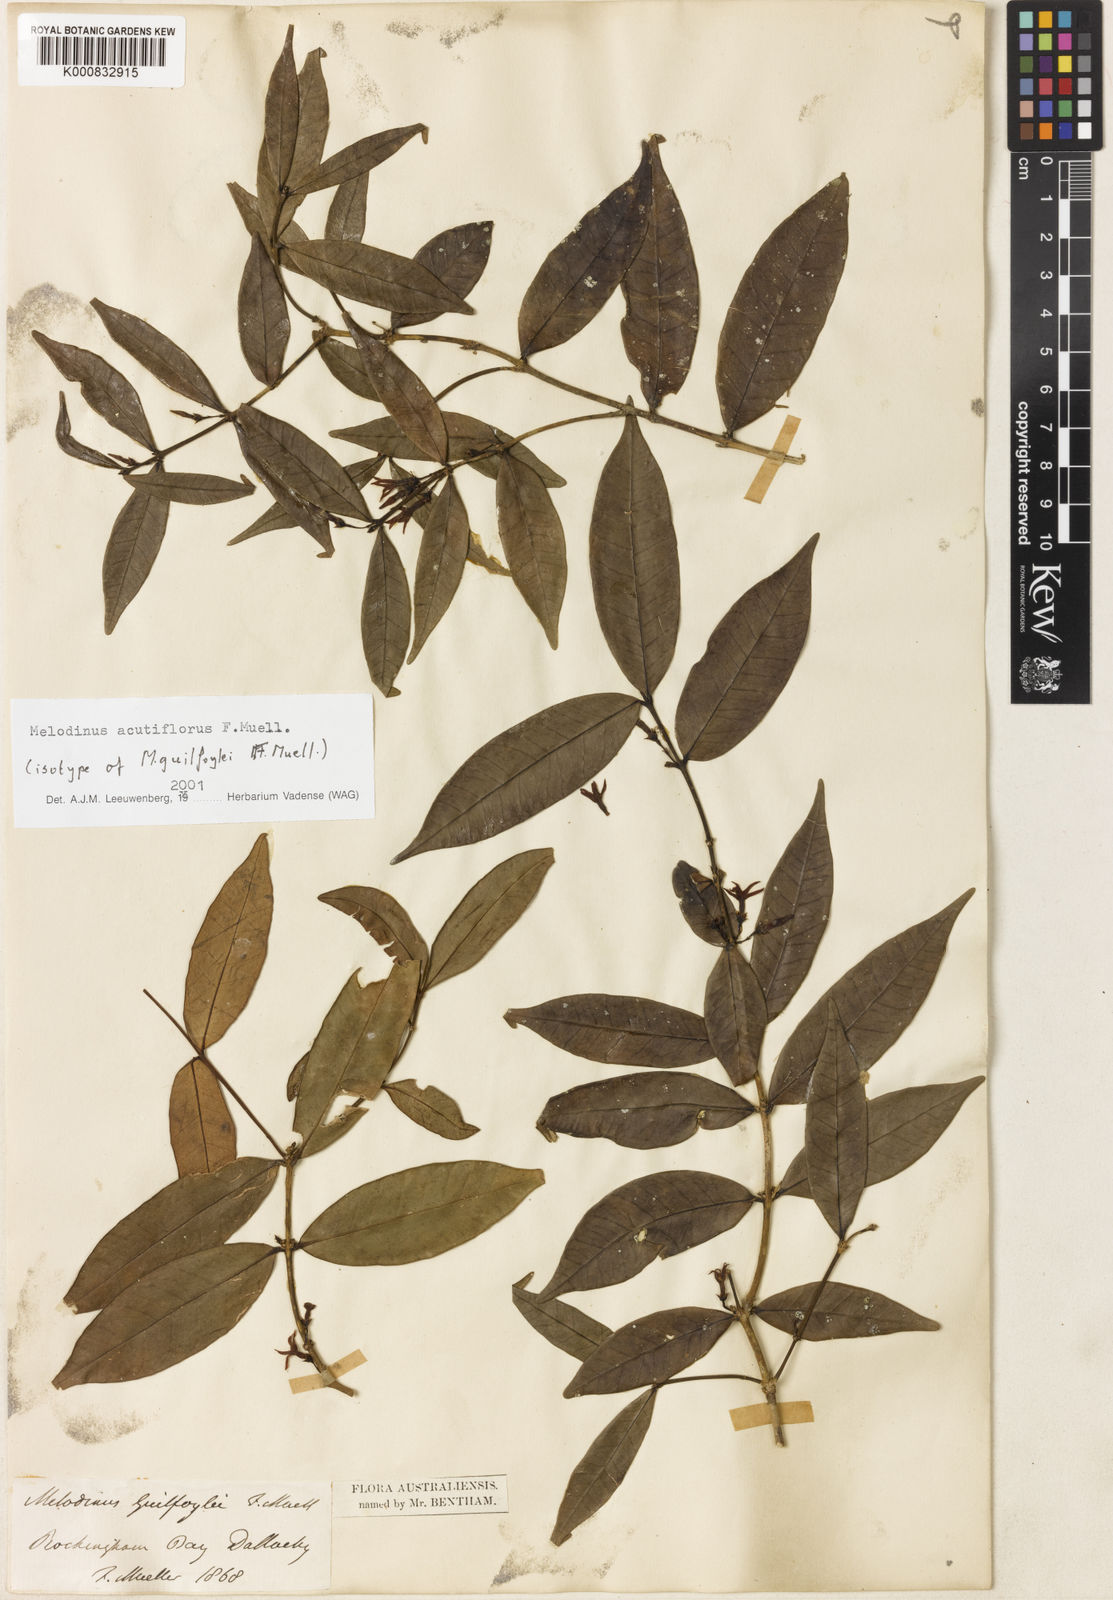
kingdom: Plantae
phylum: Tracheophyta
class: Magnoliopsida
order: Gentianales
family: Apocynaceae
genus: Melodinus
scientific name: Melodinus acutiflorus
